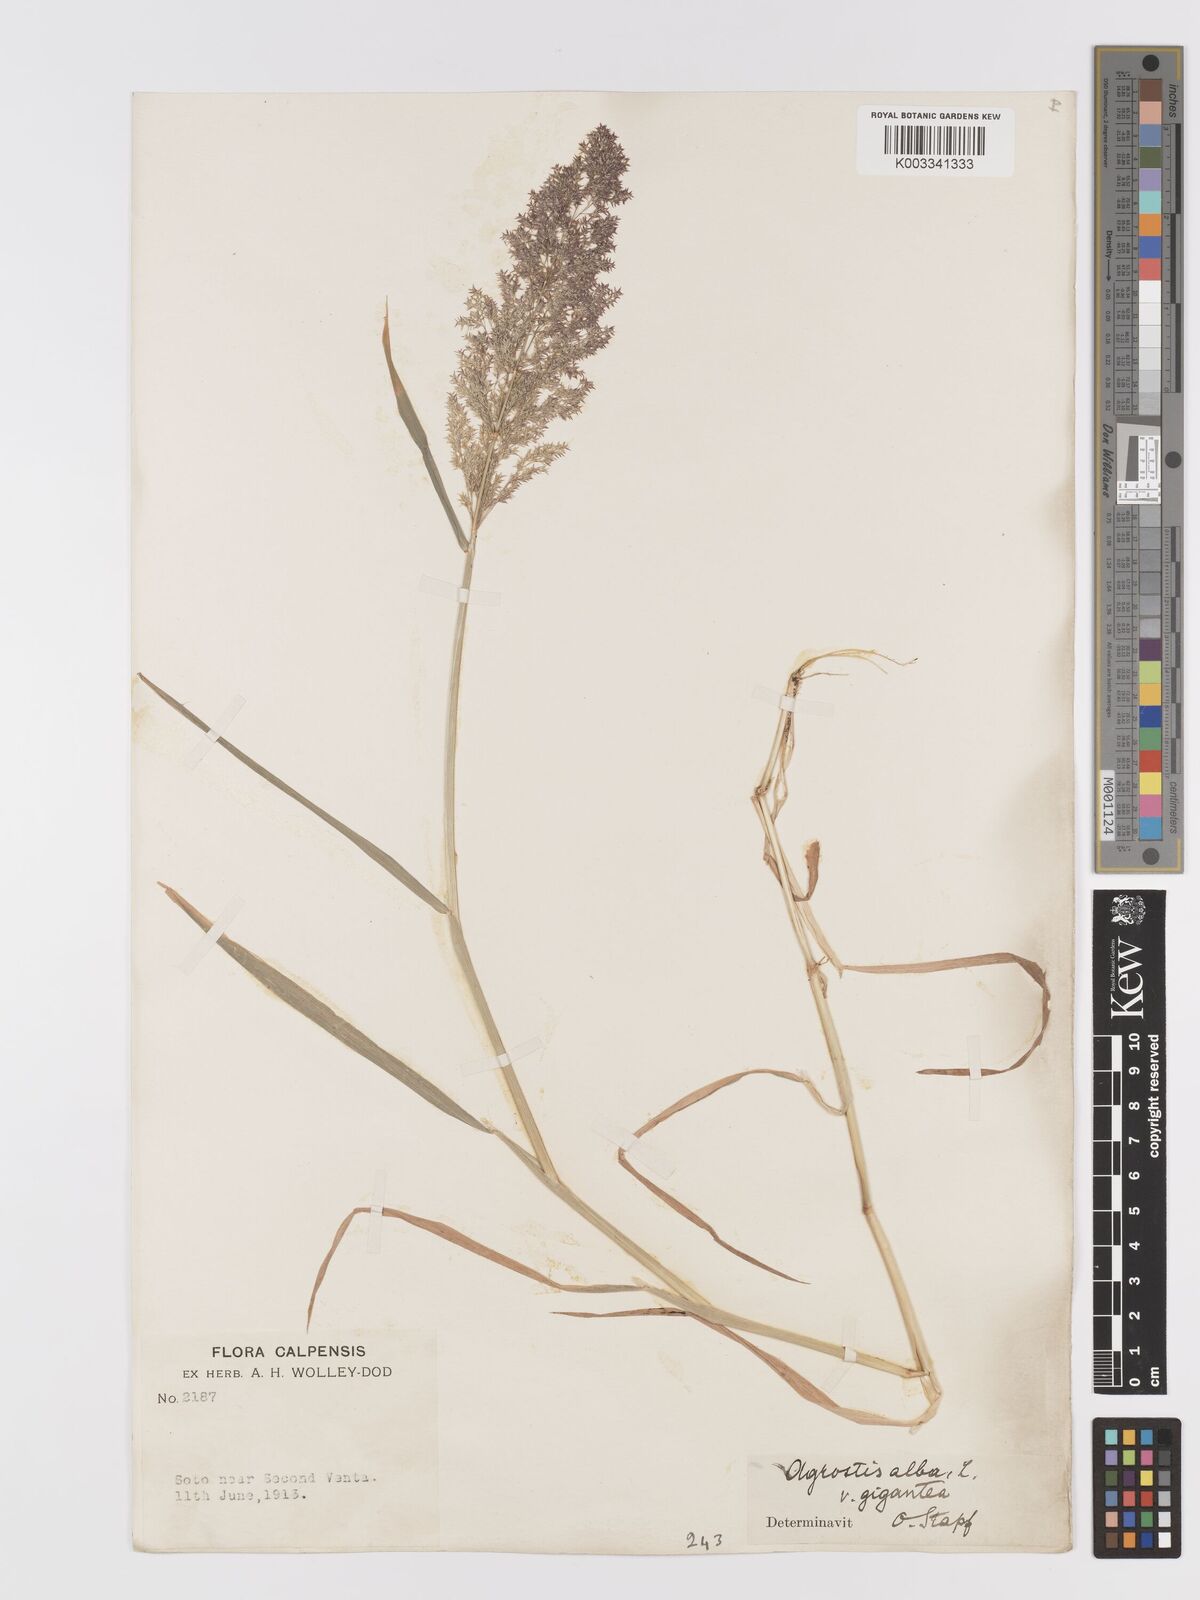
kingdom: Plantae
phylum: Tracheophyta
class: Liliopsida
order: Poales
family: Poaceae
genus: Agrostis
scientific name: Agrostis gigantea
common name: Black bent
